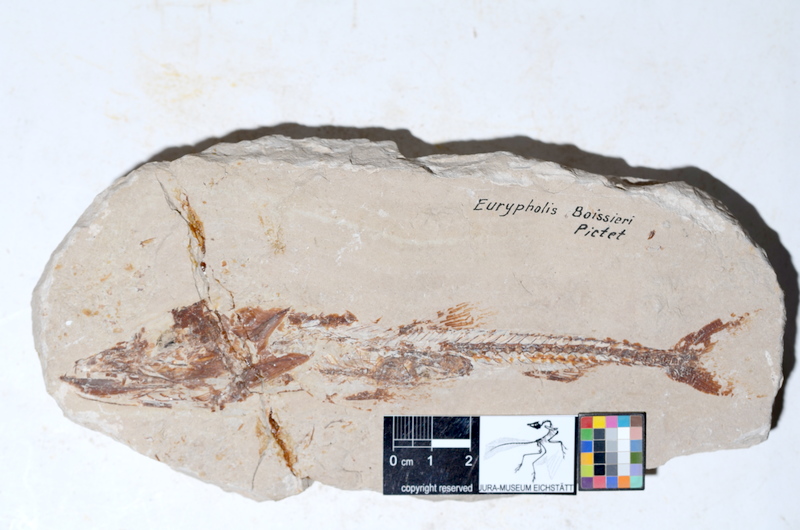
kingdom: Animalia
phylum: Chordata
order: Salmoniformes
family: Eurypholidae
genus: Eurypholis
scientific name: Eurypholis boissieri
